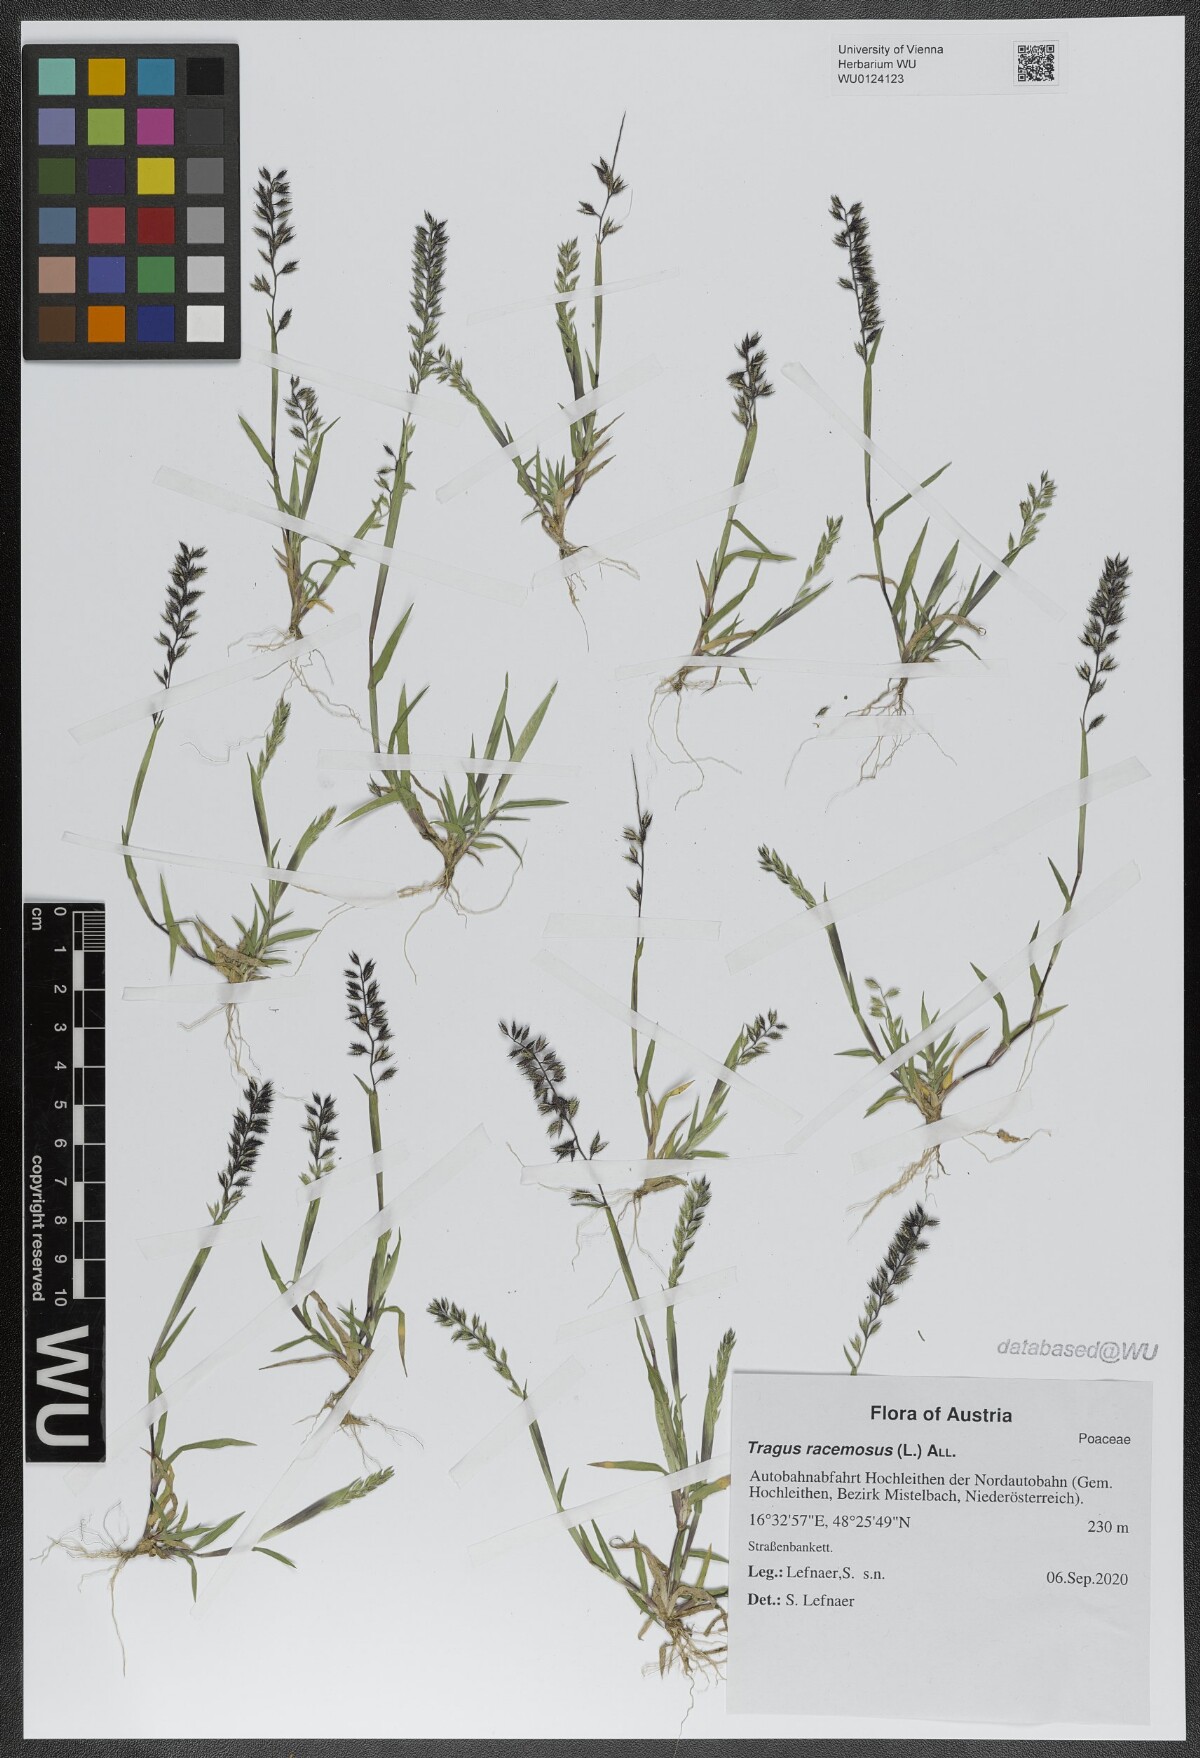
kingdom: Plantae
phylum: Tracheophyta
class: Liliopsida
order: Poales
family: Poaceae
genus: Tragus
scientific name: Tragus racemosus
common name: European bur-grass
